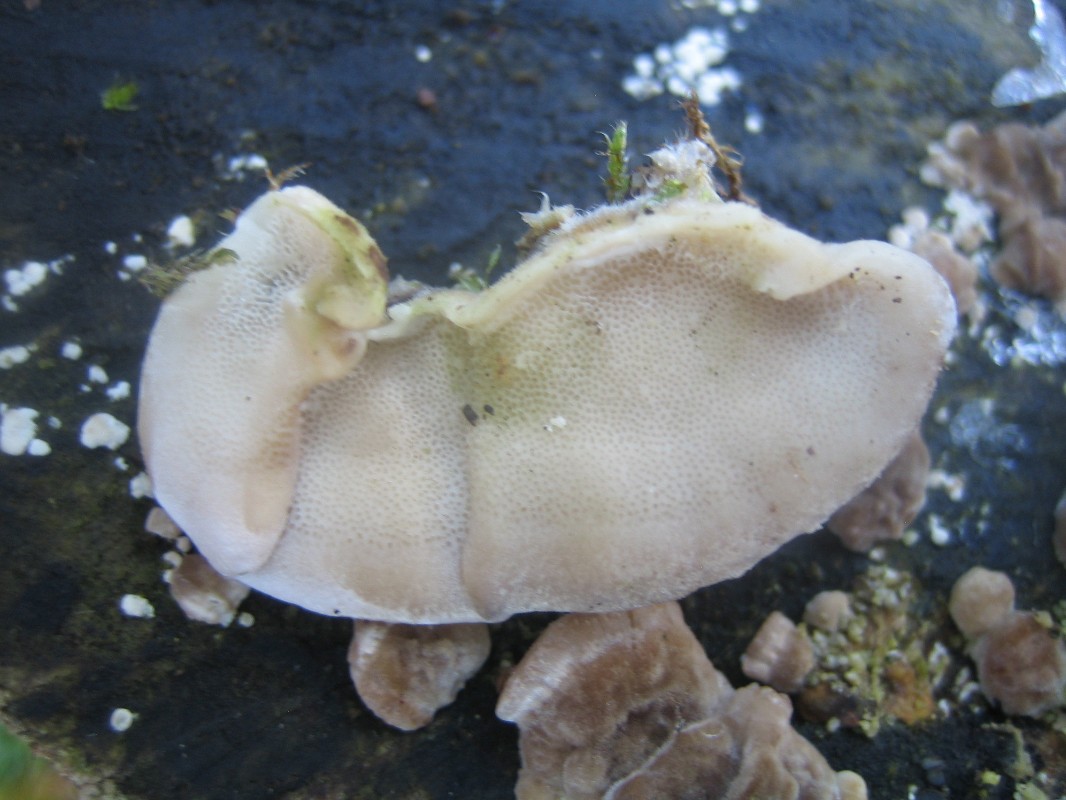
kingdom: Fungi
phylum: Basidiomycota
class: Agaricomycetes
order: Polyporales
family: Polyporaceae
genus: Trametes
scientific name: Trametes versicolor
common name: broget læderporesvamp
